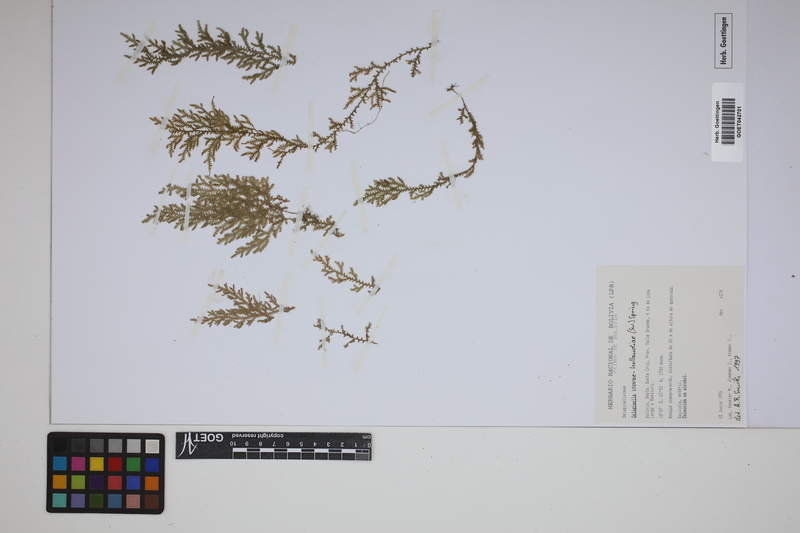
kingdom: Plantae
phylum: Tracheophyta
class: Lycopodiopsida
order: Selaginellales
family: Selaginellaceae
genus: Selaginella
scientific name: Selaginella novae-hollandiae
